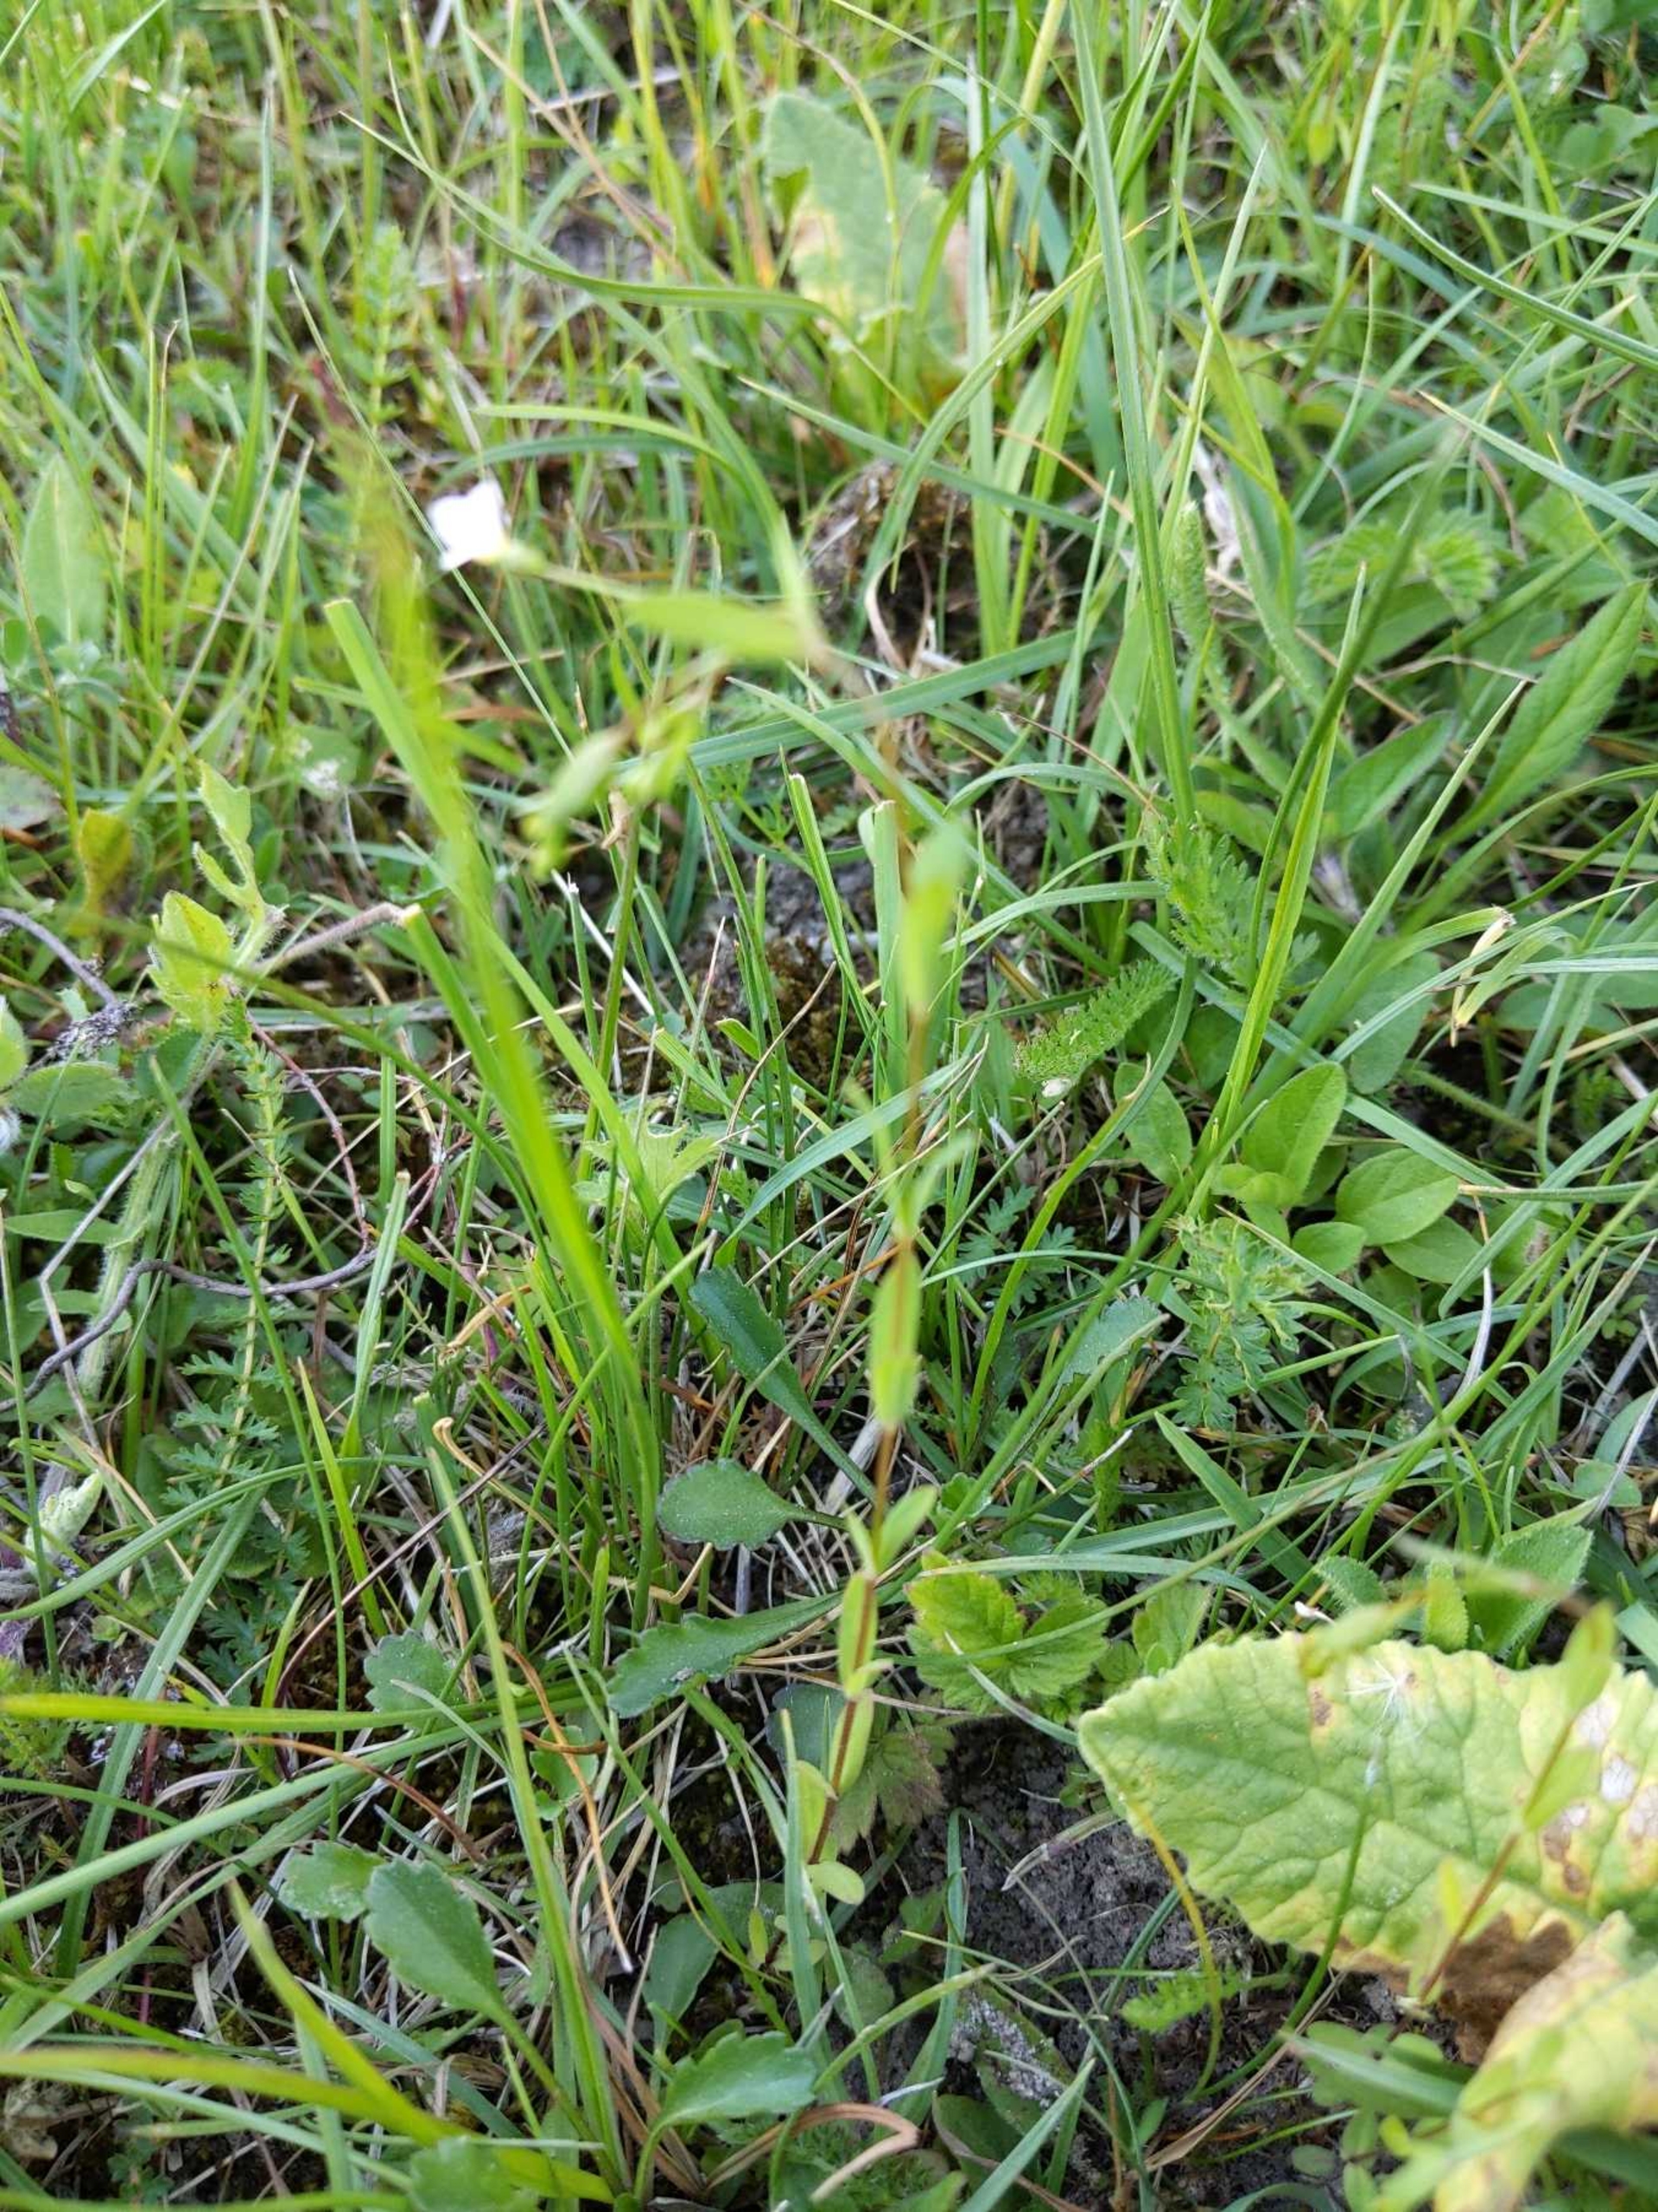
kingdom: Plantae
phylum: Tracheophyta
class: Magnoliopsida
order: Malpighiales
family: Linaceae
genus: Linum
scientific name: Linum catharticum
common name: Vild hør
